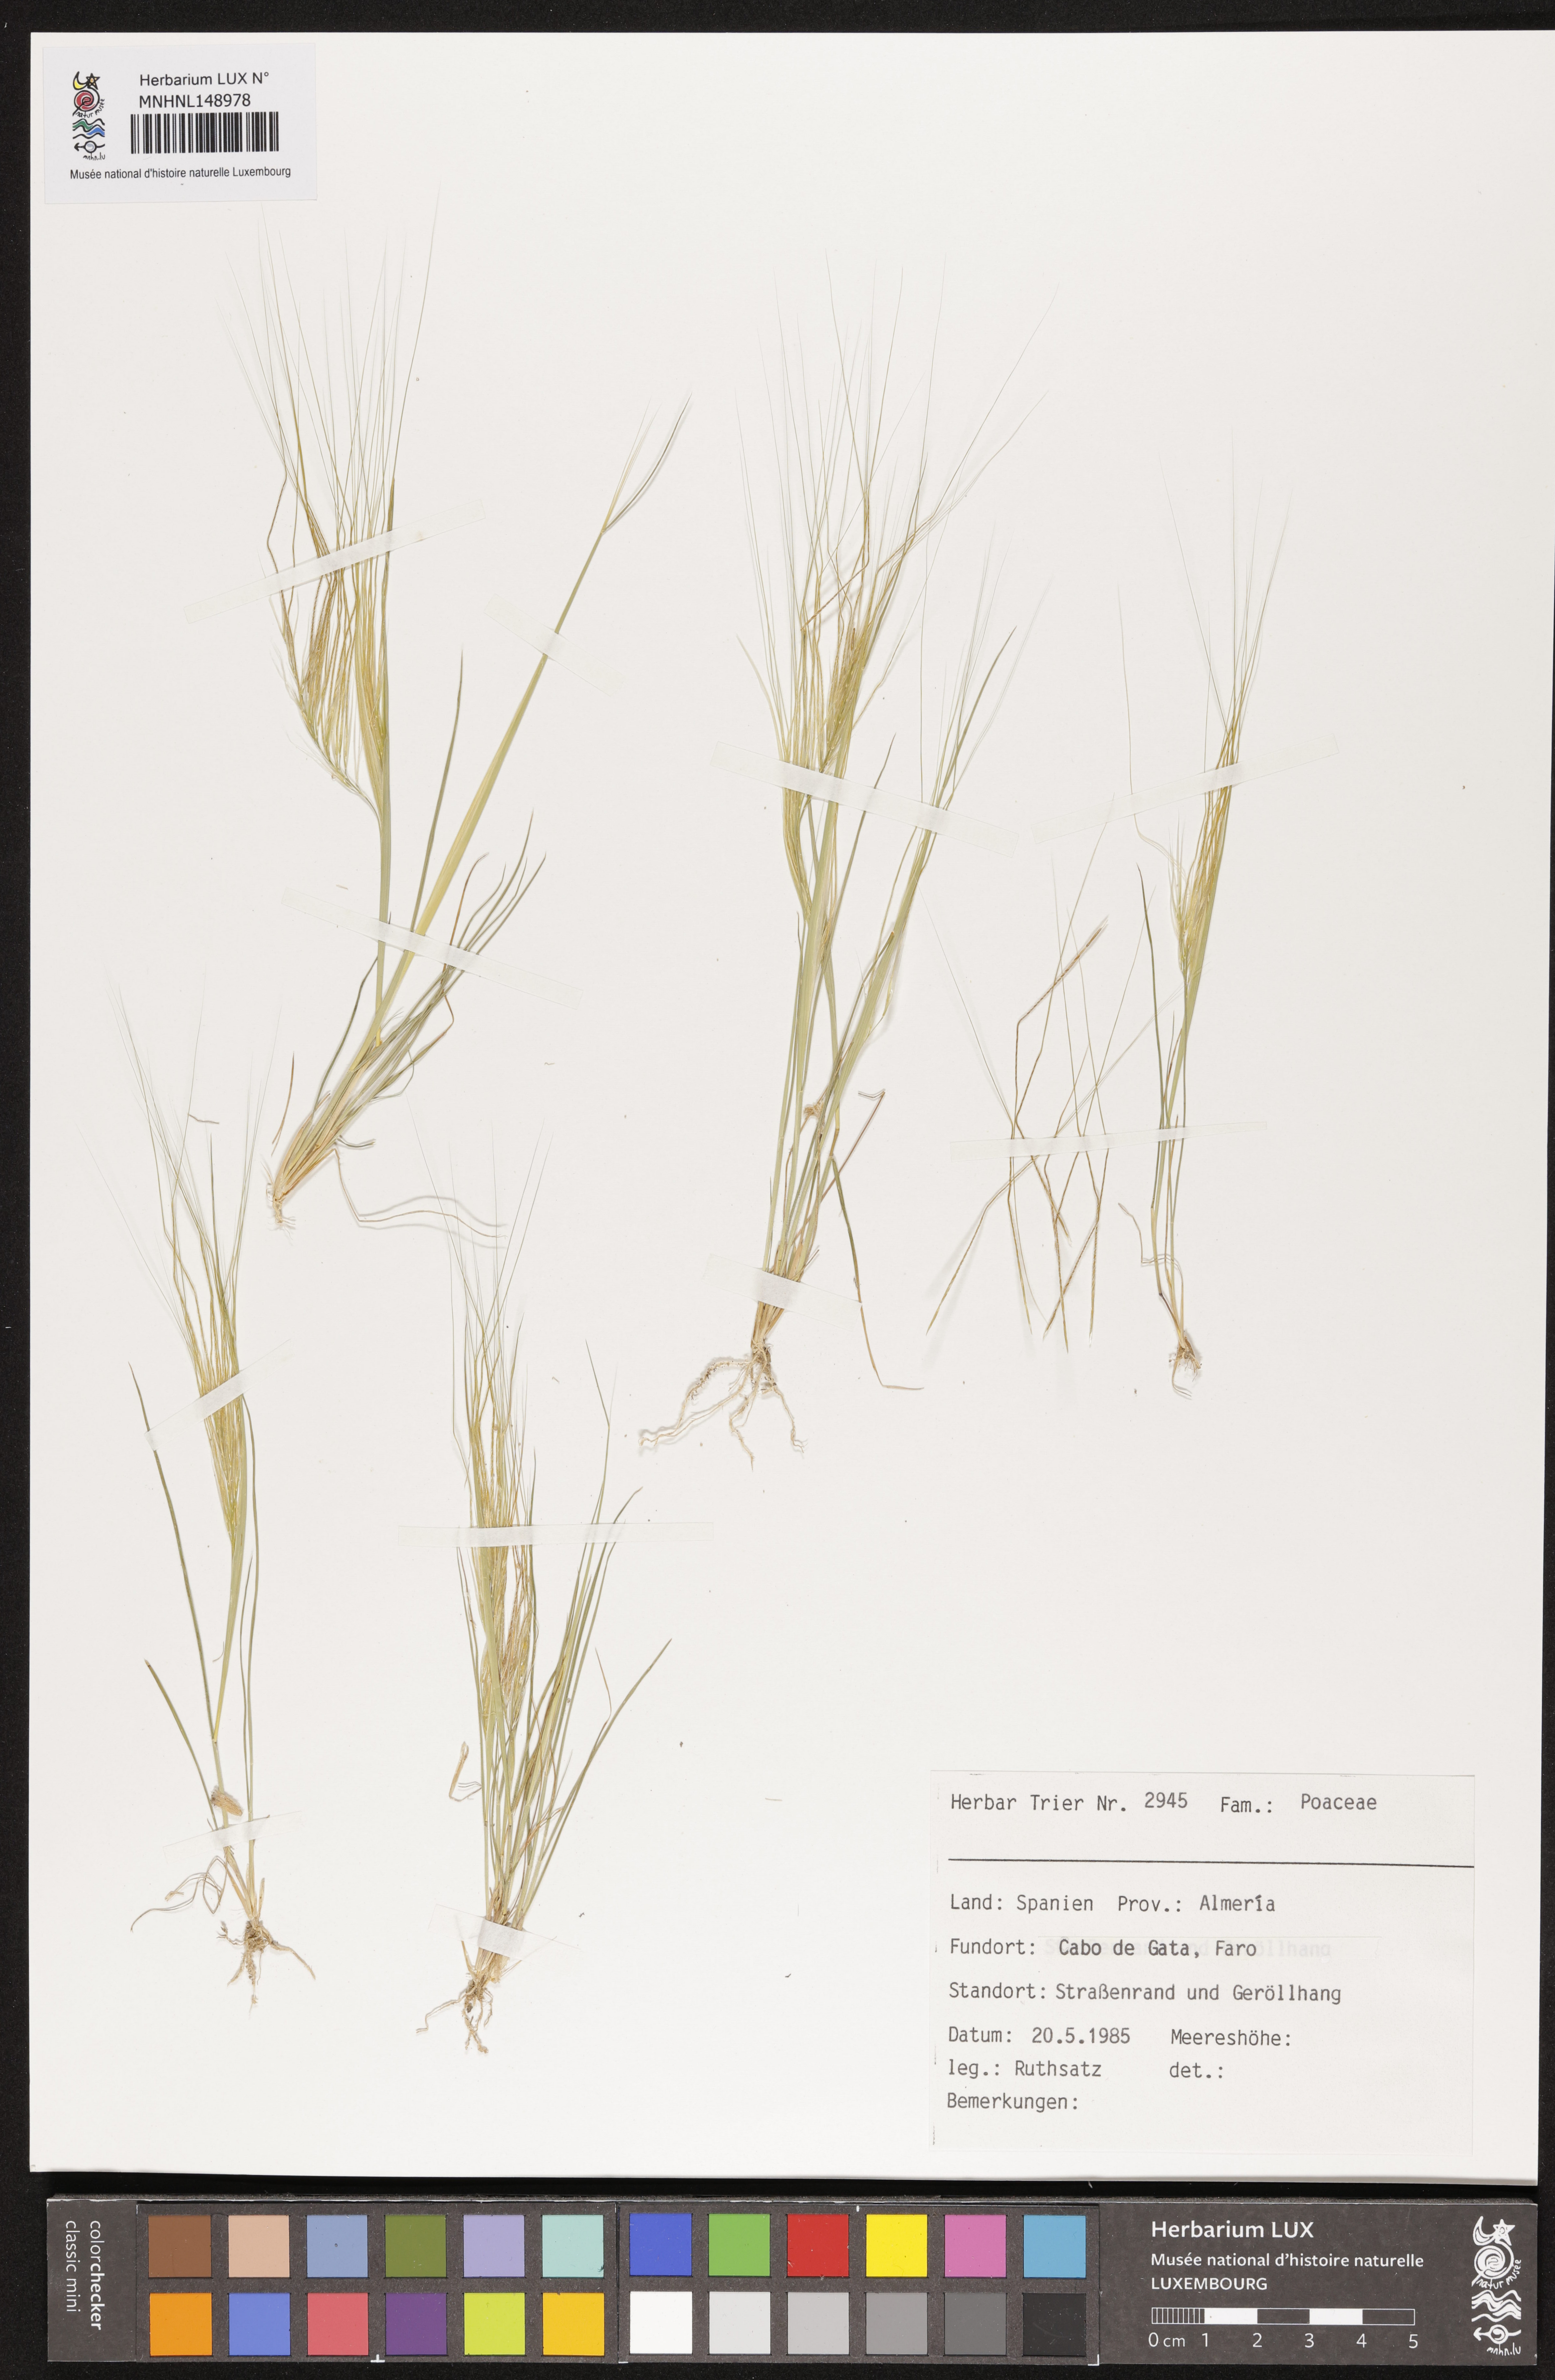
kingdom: Plantae
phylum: Tracheophyta
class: Liliopsida
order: Poales
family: Poaceae
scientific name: Poaceae
